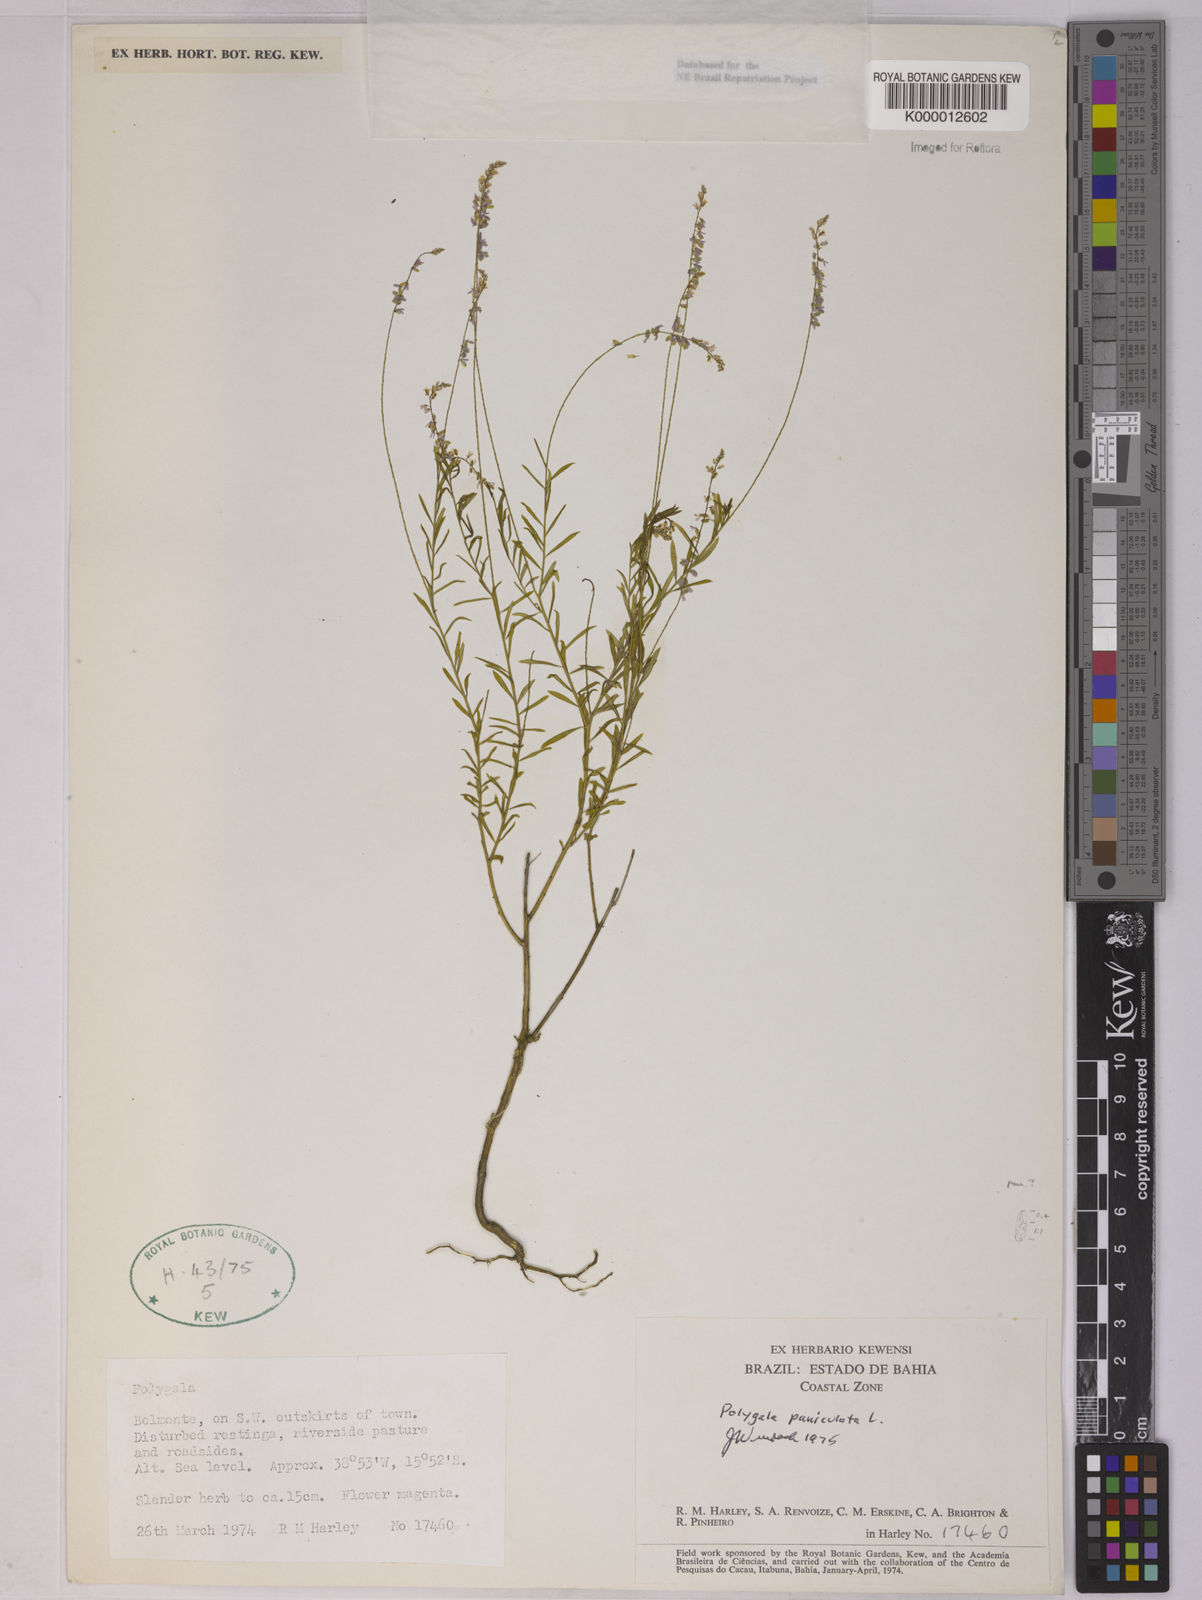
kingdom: Plantae
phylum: Tracheophyta
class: Magnoliopsida
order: Fabales
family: Polygalaceae
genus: Polygala
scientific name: Polygala paniculata
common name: Orosne
